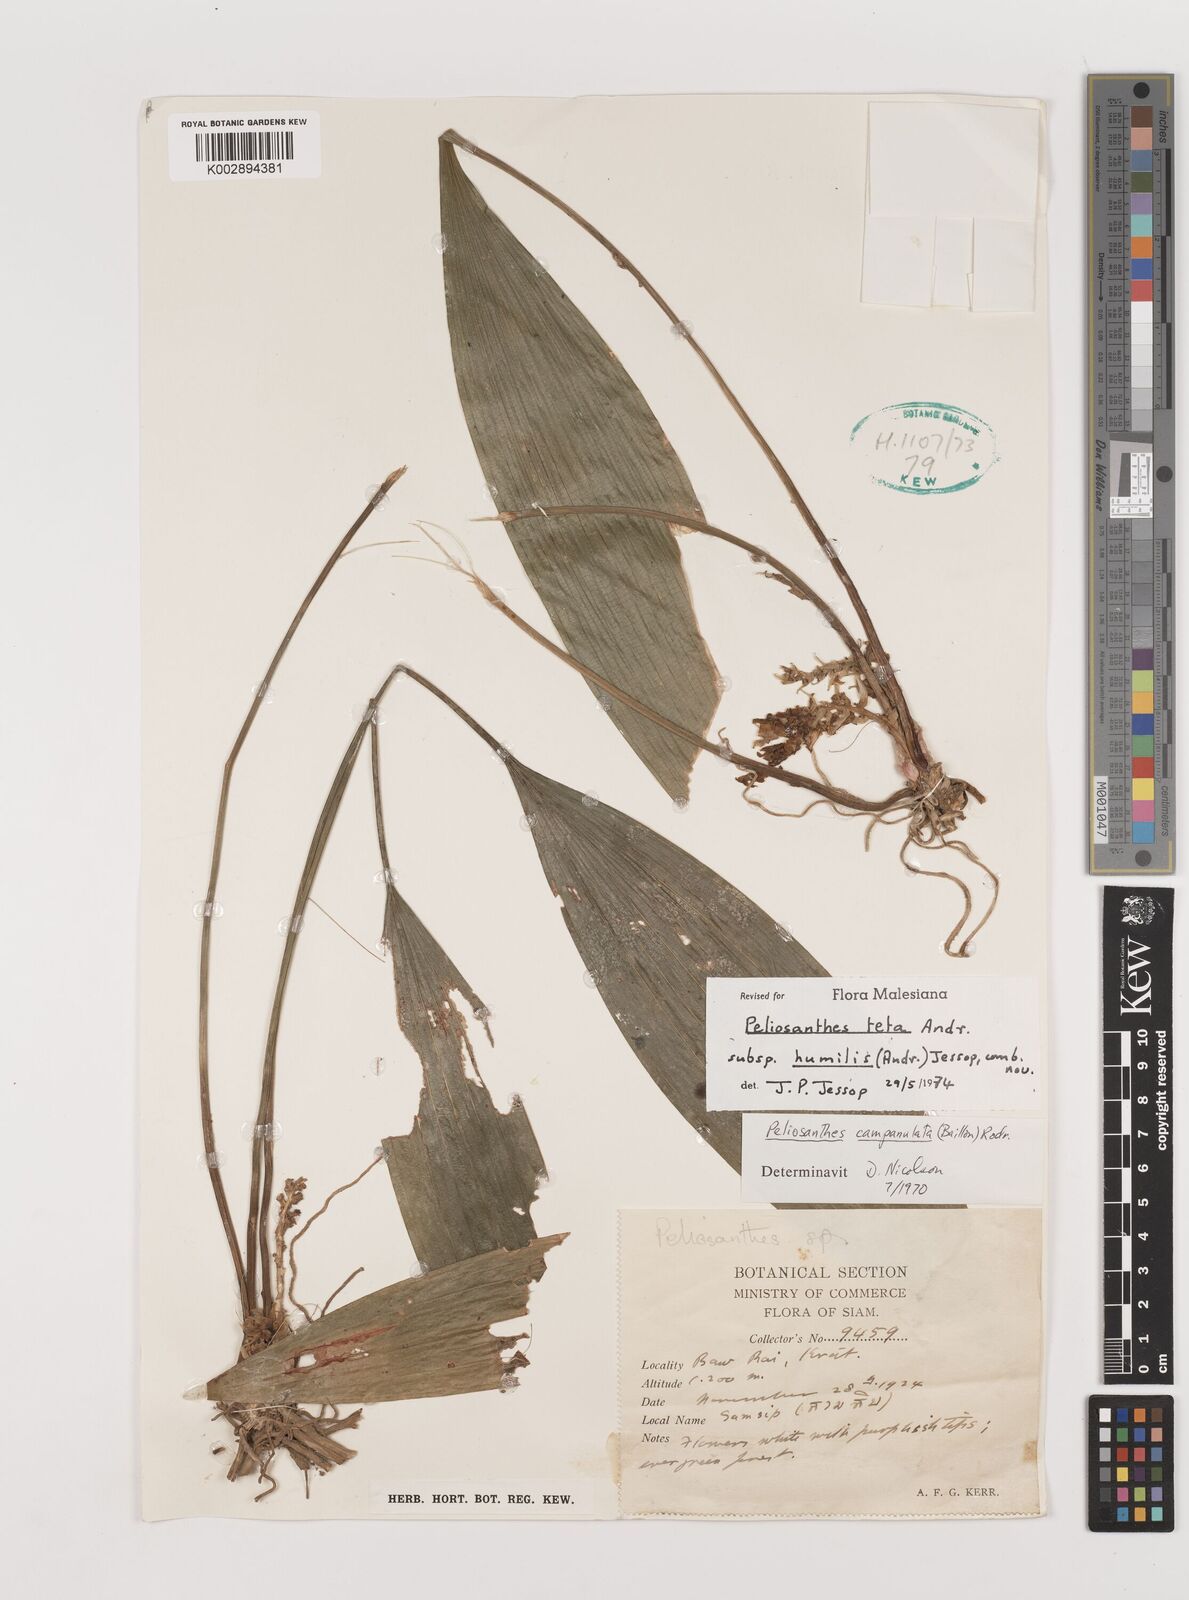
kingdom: Plantae
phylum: Tracheophyta
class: Liliopsida
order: Asparagales
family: Asparagaceae
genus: Peliosanthes
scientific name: Peliosanthes teta
